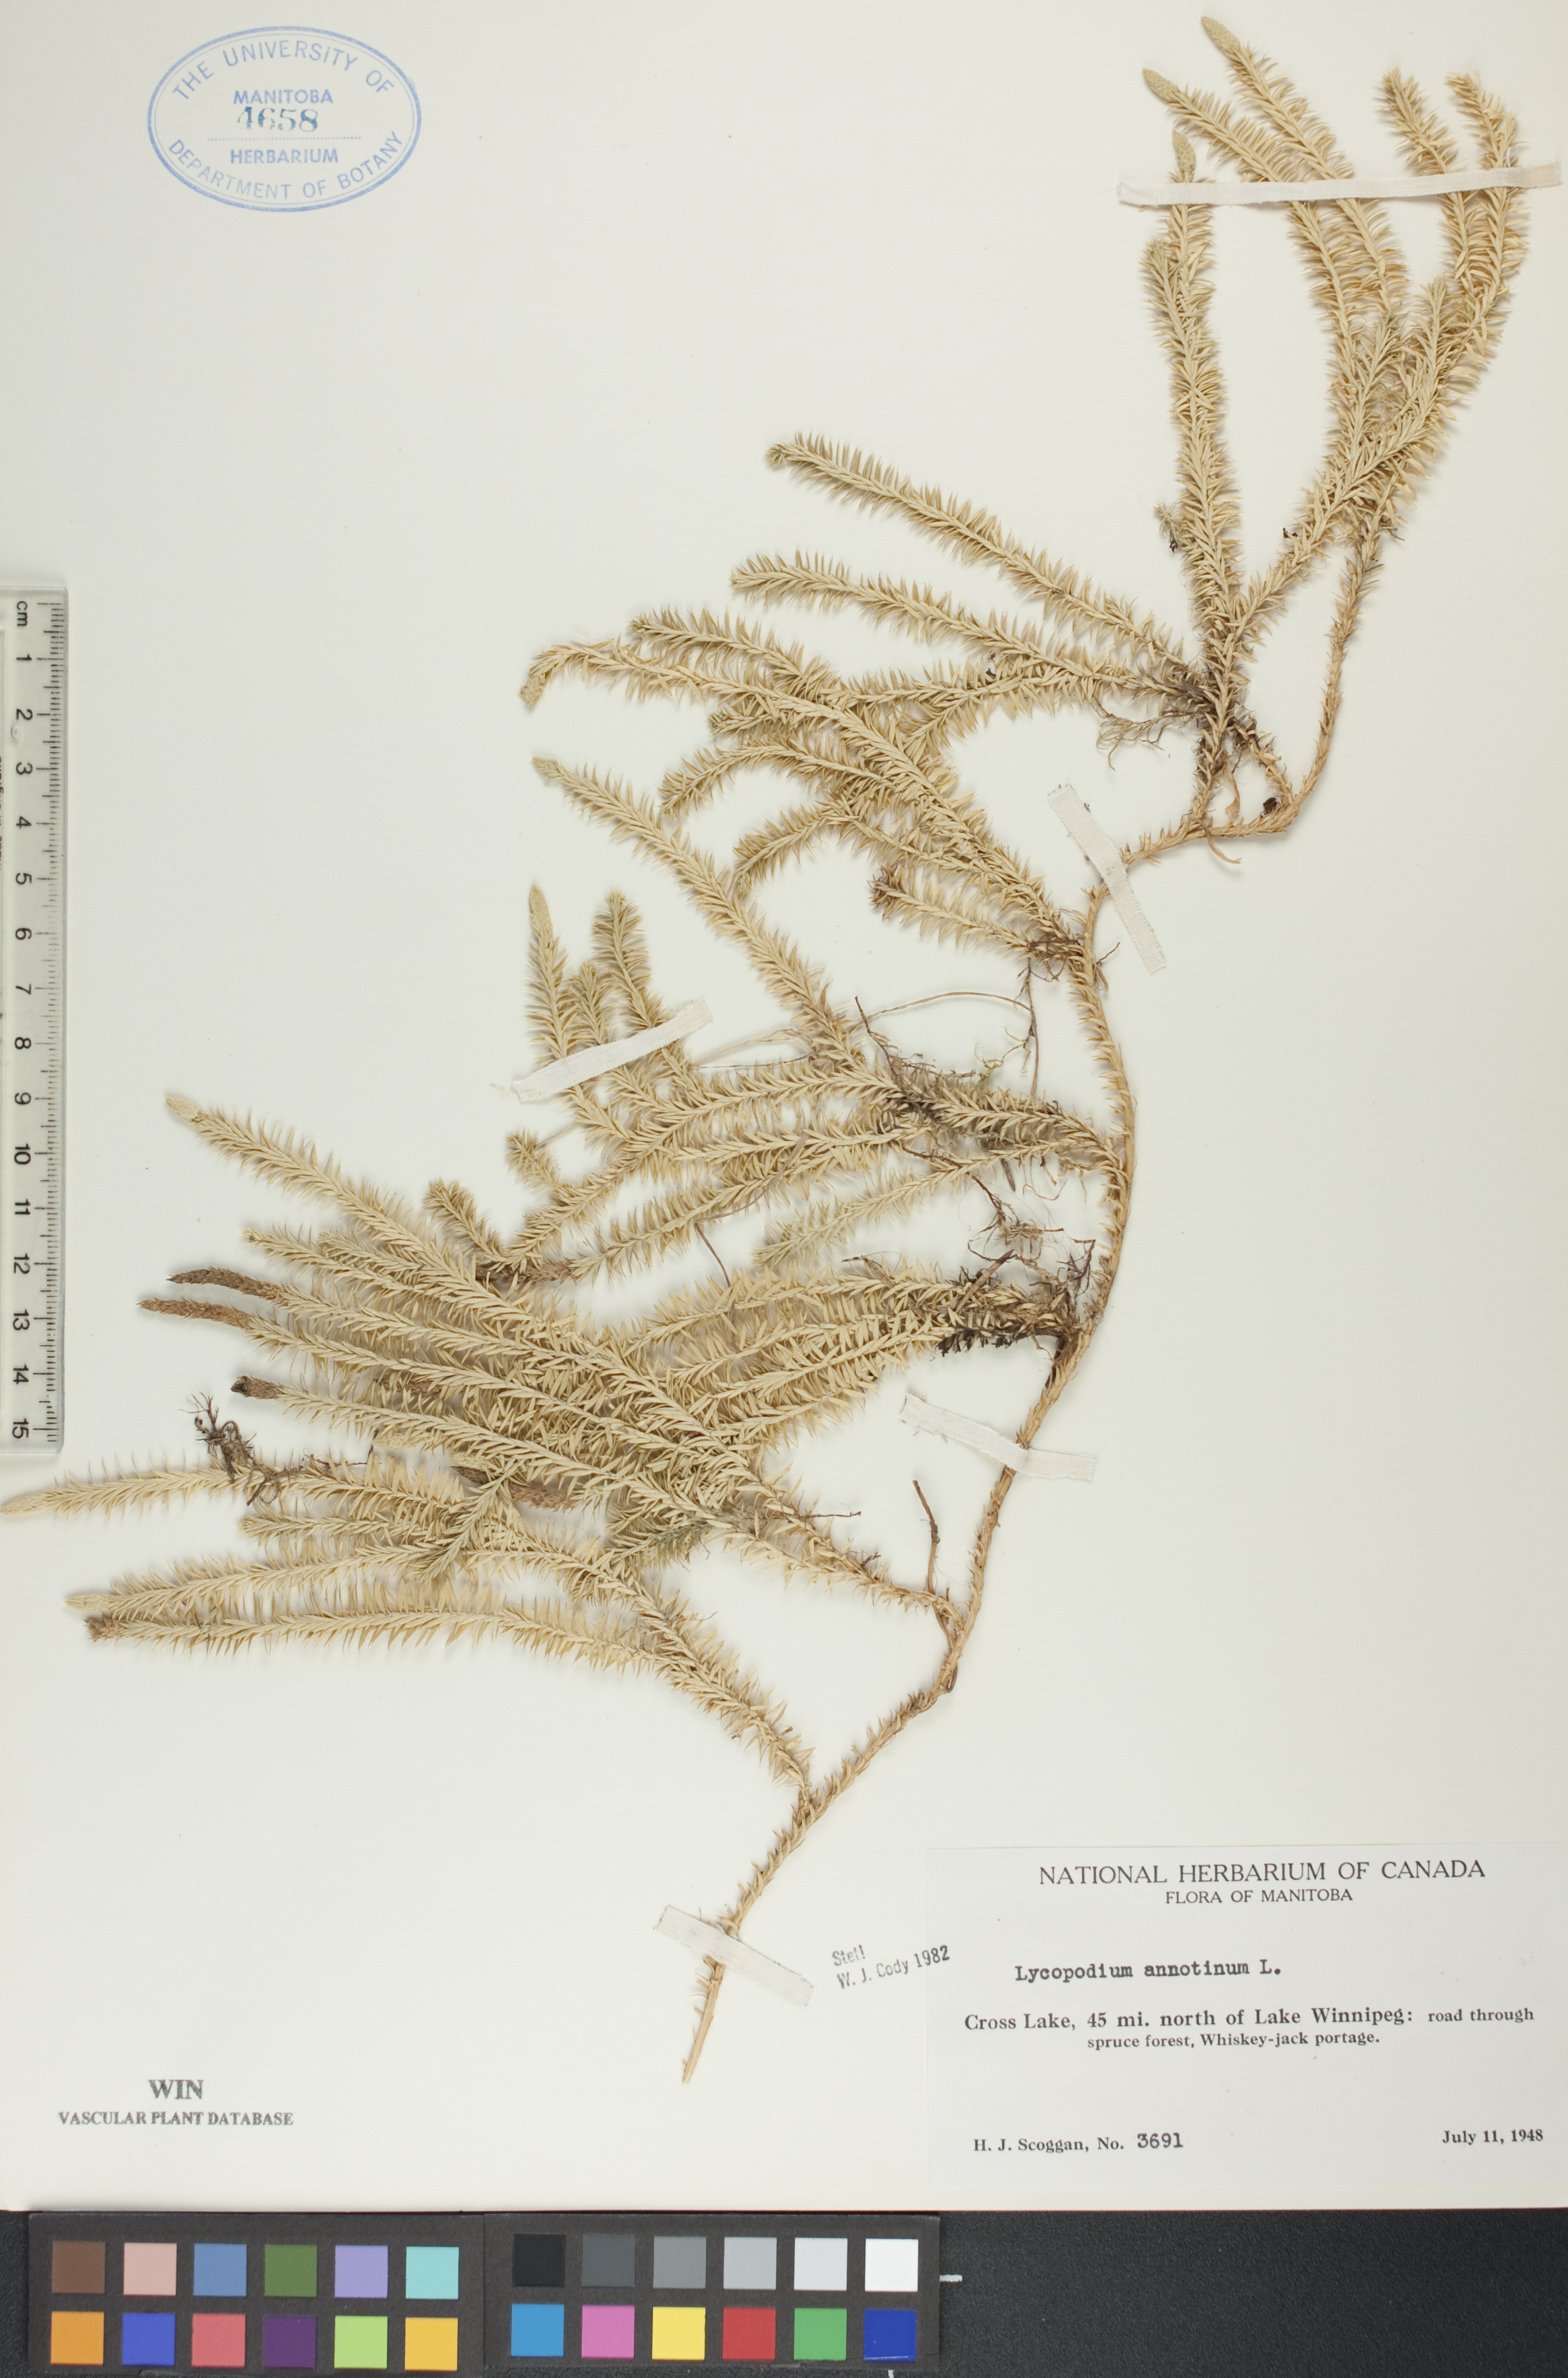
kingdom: Plantae
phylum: Tracheophyta
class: Lycopodiopsida
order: Lycopodiales
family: Lycopodiaceae
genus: Spinulum
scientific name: Spinulum annotinum
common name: Interrupted club-moss
